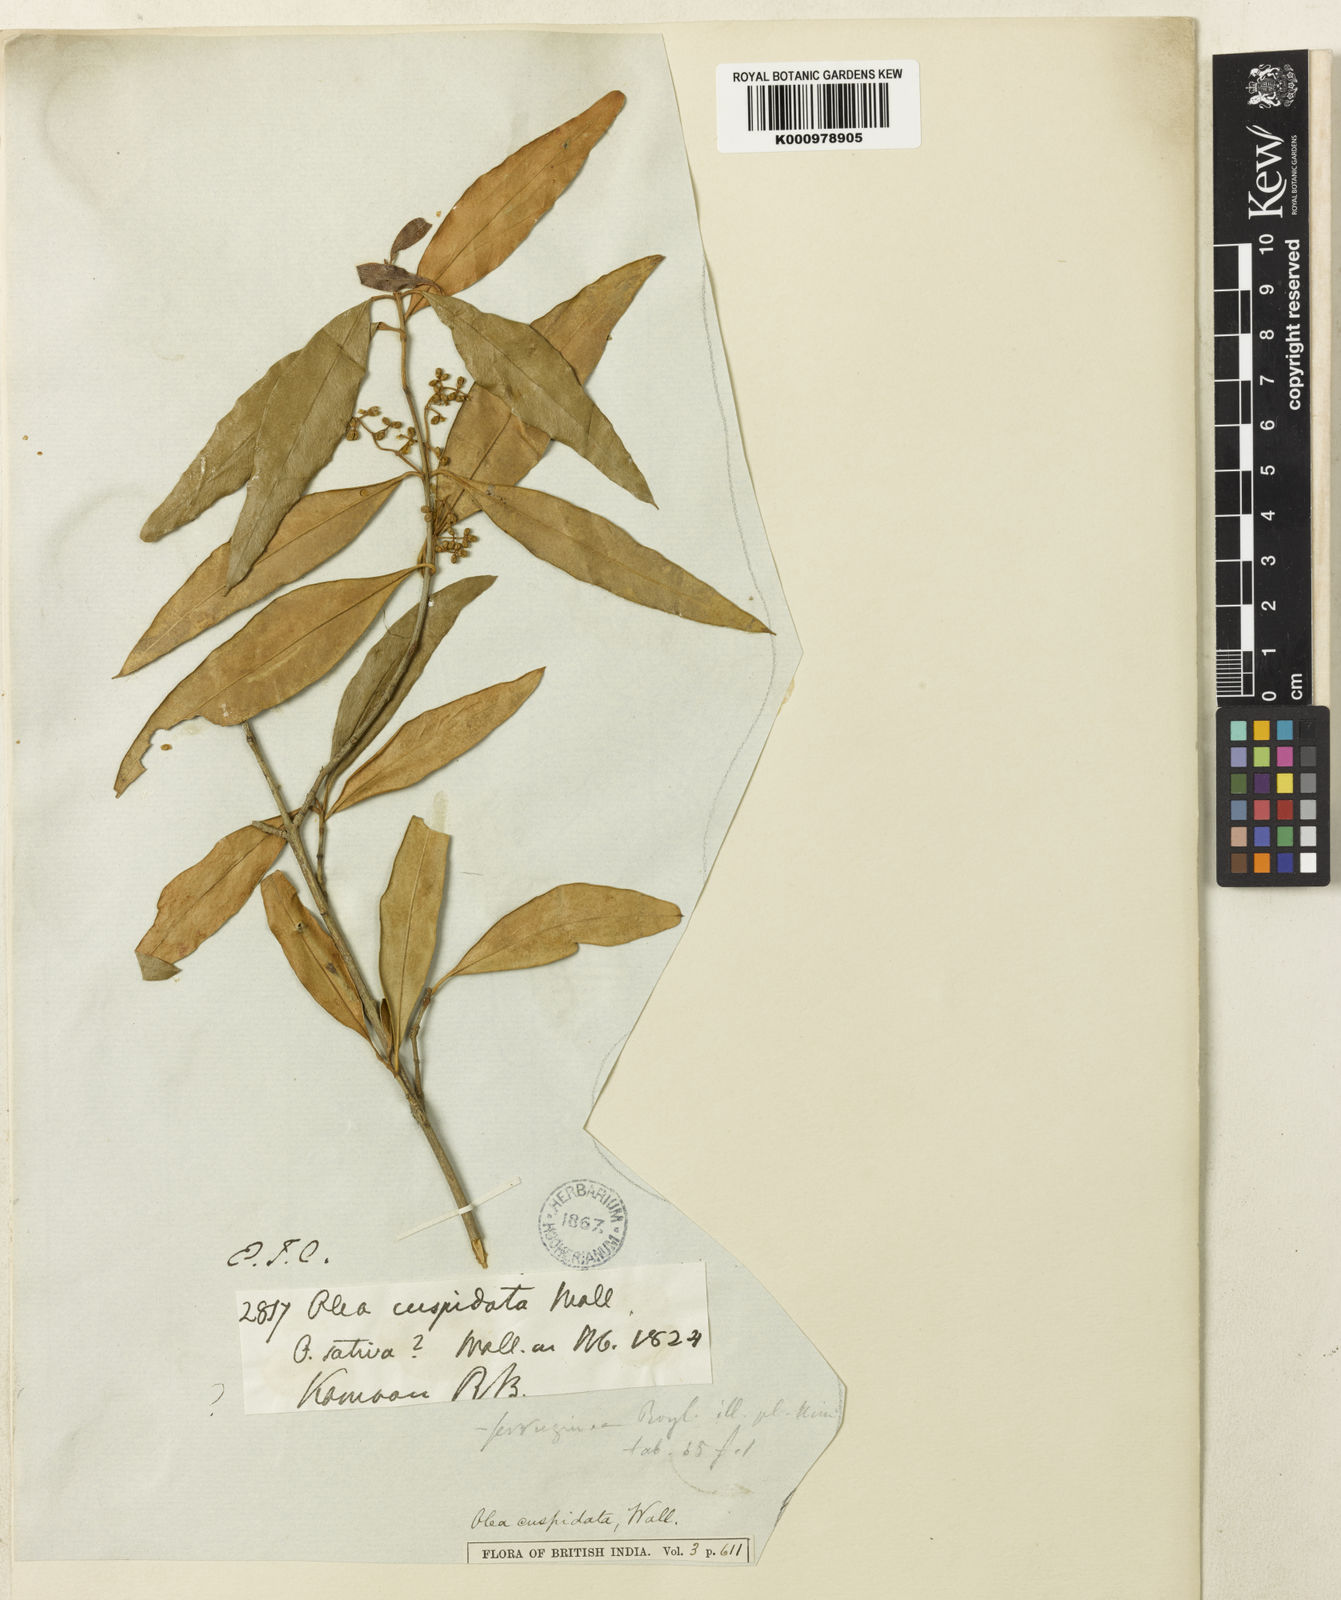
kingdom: Plantae
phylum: Tracheophyta
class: Magnoliopsida
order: Lamiales
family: Oleaceae
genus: Olea
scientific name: Olea
